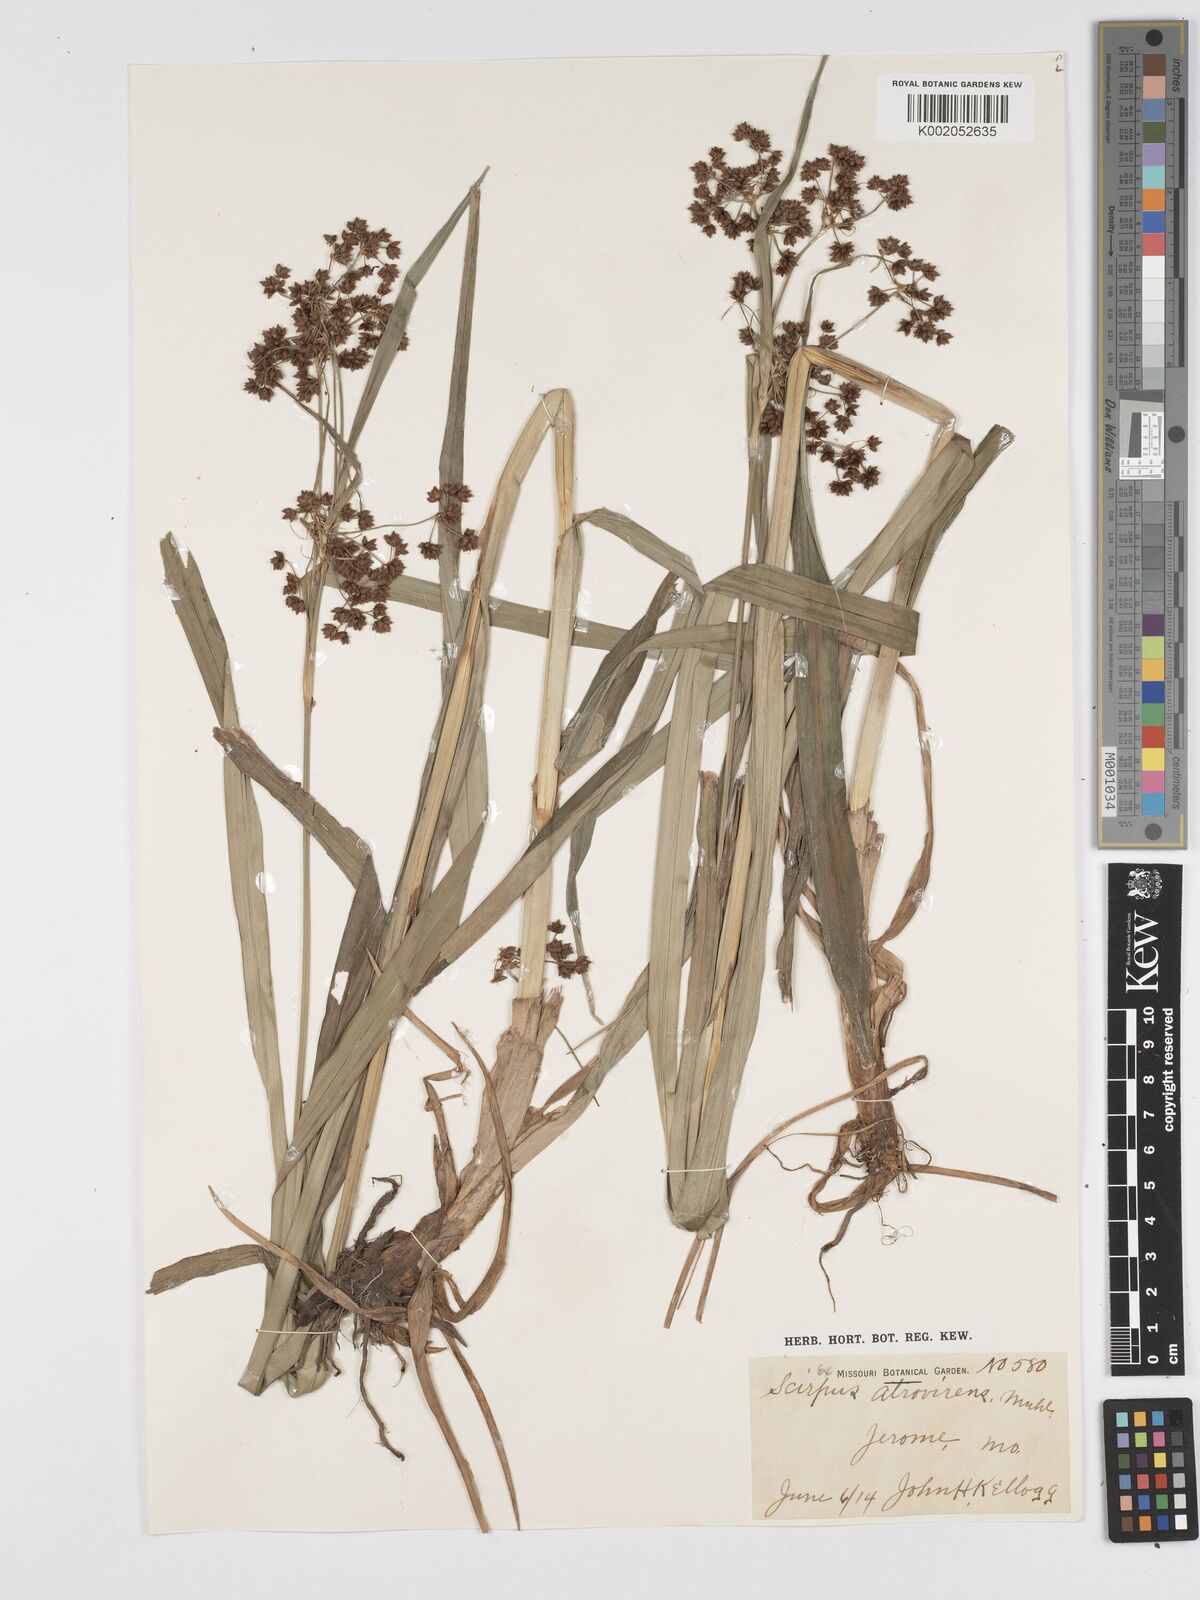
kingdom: Plantae
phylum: Tracheophyta
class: Liliopsida
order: Poales
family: Cyperaceae
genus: Scirpus
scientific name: Scirpus atrovirens
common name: Black bulrush
